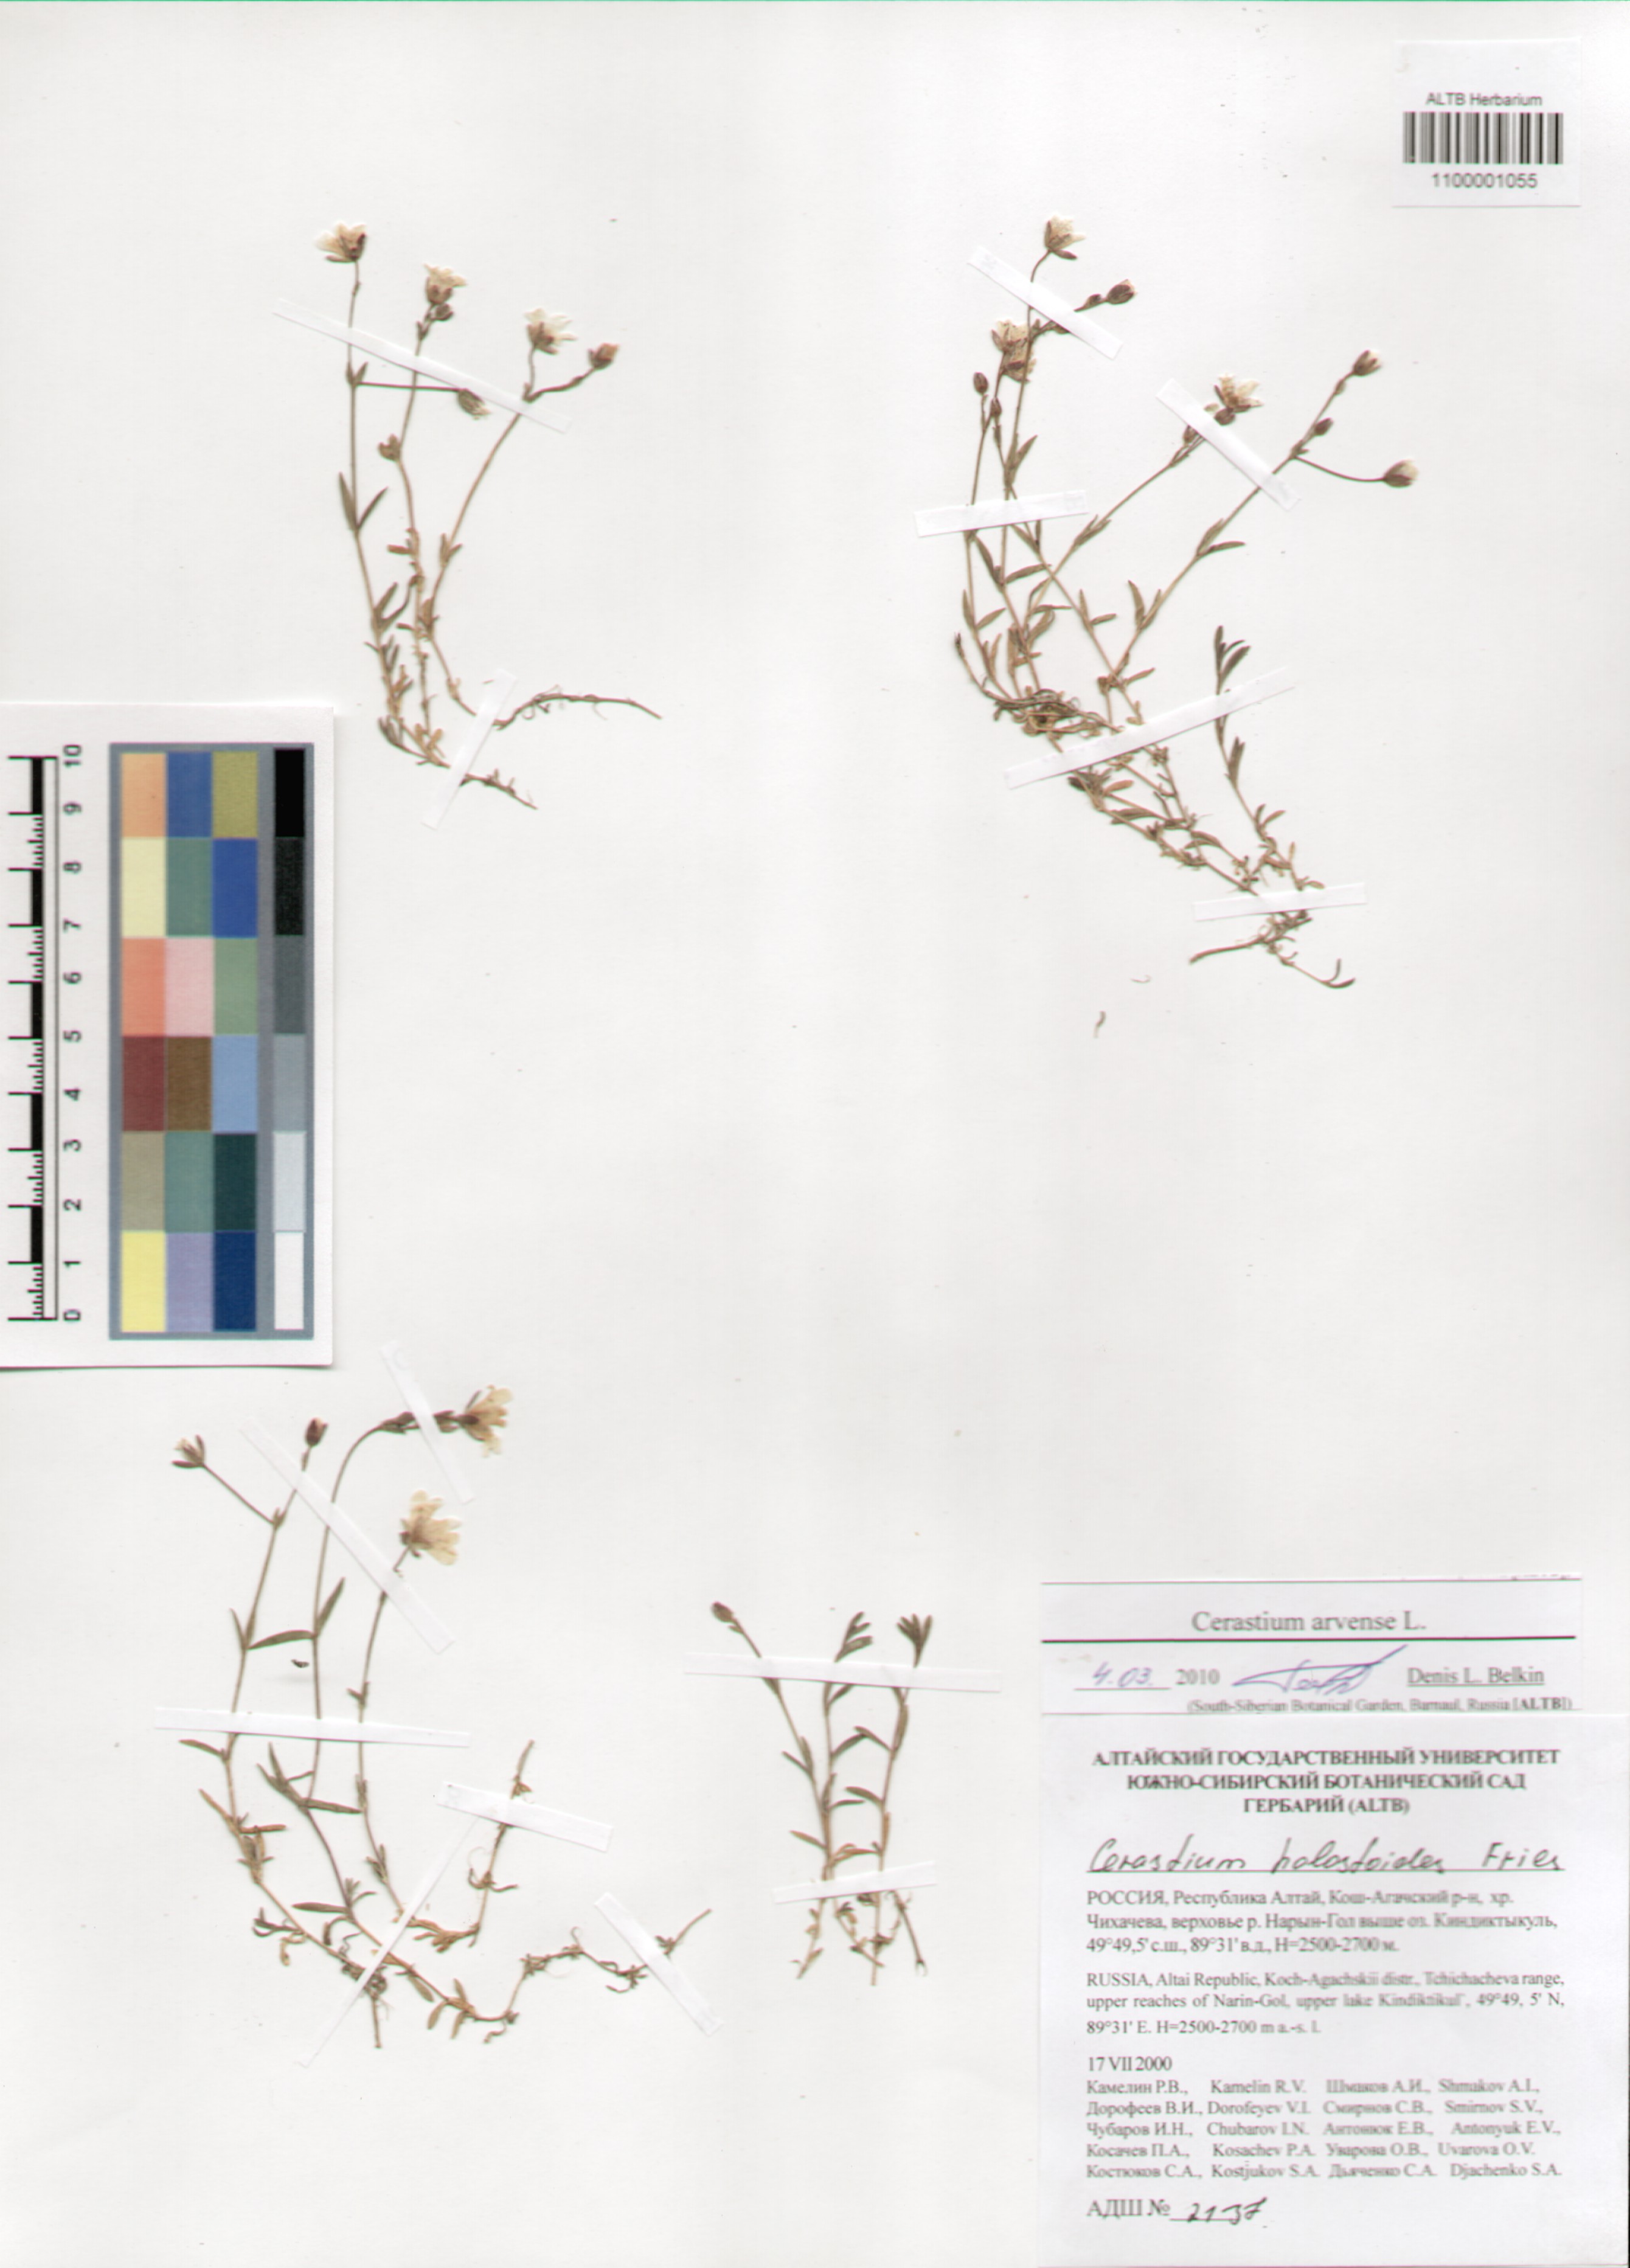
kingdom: Plantae
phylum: Tracheophyta
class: Magnoliopsida
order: Caryophyllales
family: Caryophyllaceae
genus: Cerastium
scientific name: Cerastium arvense
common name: Field mouse-ear
